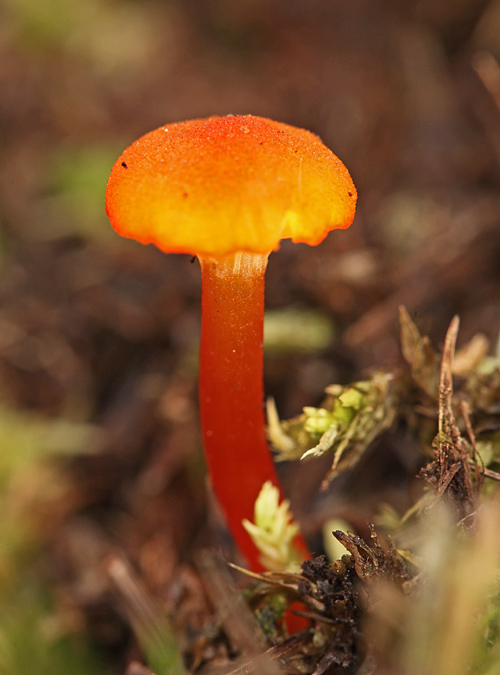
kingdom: Fungi
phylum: Basidiomycota
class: Agaricomycetes
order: Agaricales
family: Hygrophoraceae
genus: Hygrocybe
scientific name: Hygrocybe coccineocrenata
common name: tørvemos-vokshat
